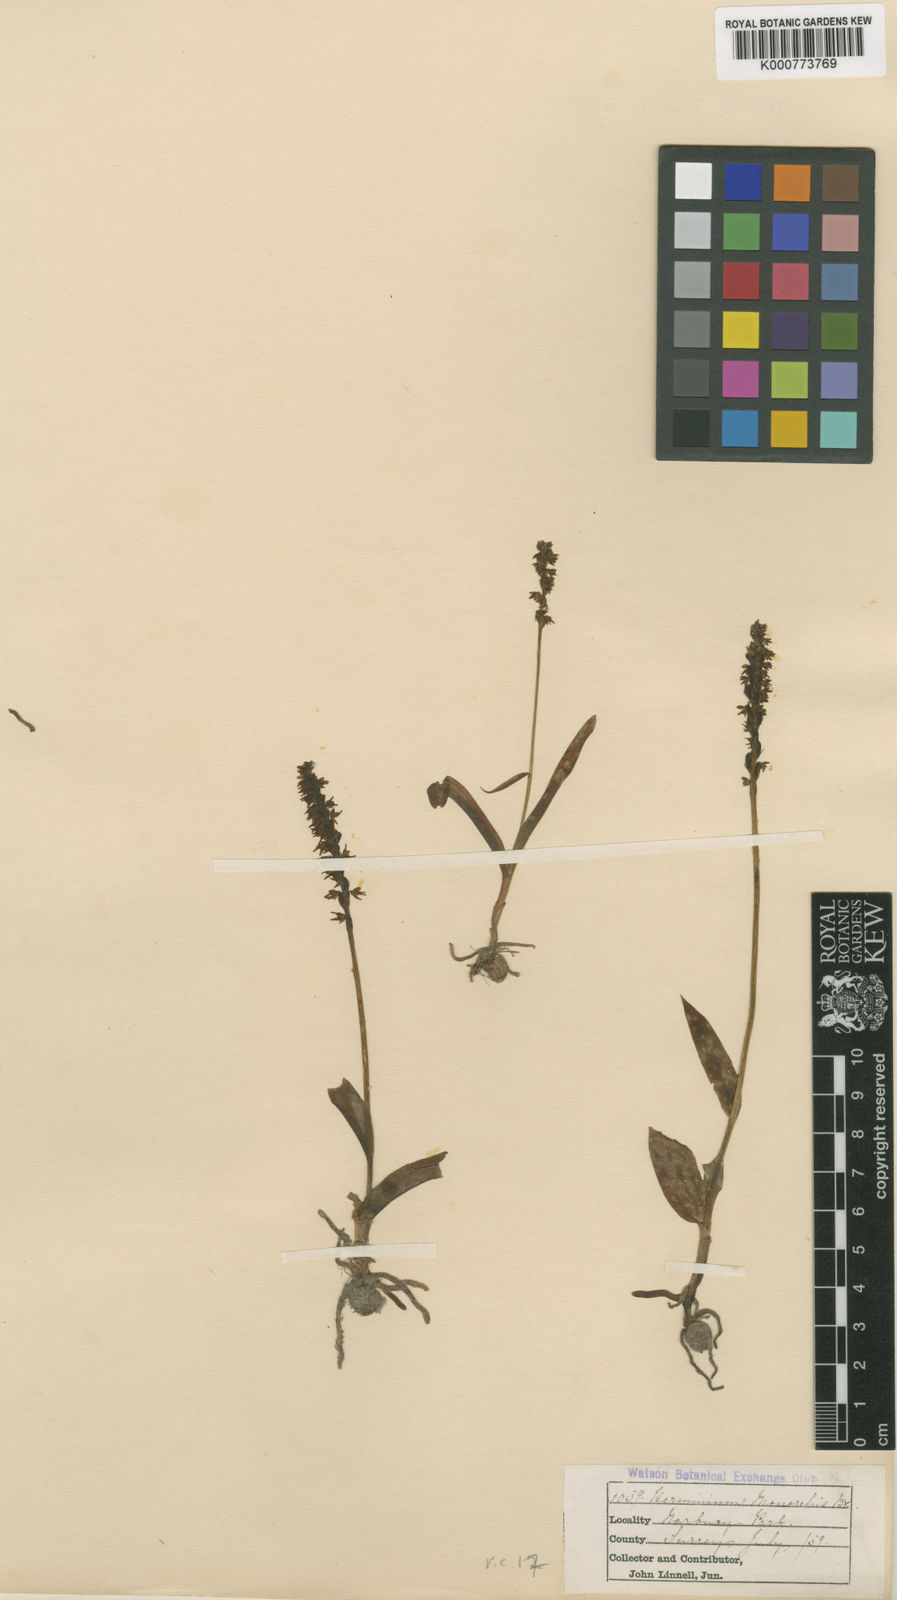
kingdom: Plantae
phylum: Tracheophyta
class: Liliopsida
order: Asparagales
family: Orchidaceae
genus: Herminium
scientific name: Herminium monorchis
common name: Musk orchid
